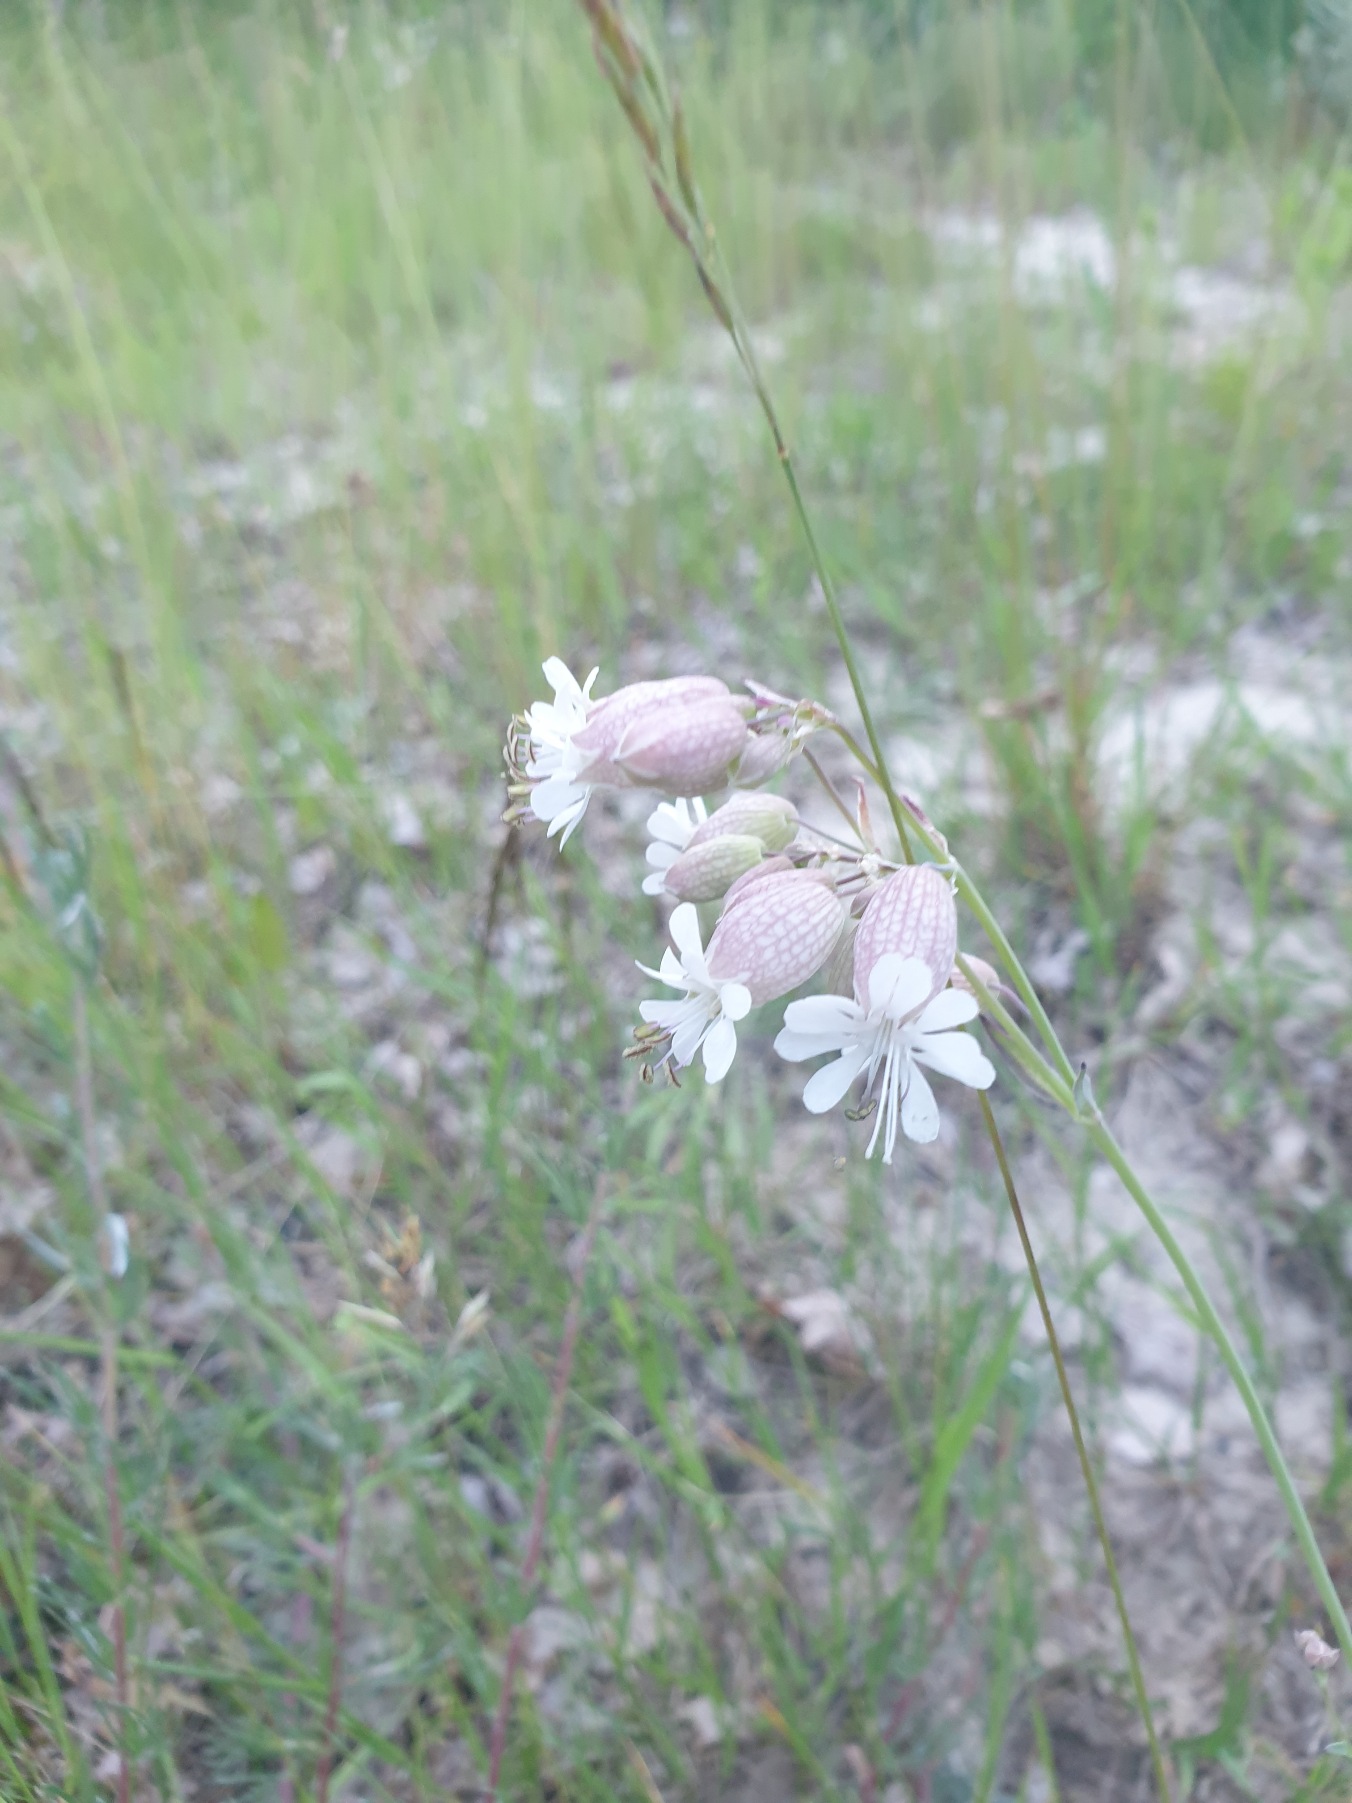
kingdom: Plantae
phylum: Tracheophyta
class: Magnoliopsida
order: Caryophyllales
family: Caryophyllaceae
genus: Silene
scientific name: Silene vulgaris
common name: Blæresmælde
